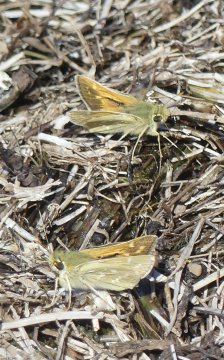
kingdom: Animalia
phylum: Arthropoda
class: Insecta
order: Lepidoptera
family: Hesperiidae
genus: Hesperia
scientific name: Hesperia comma
